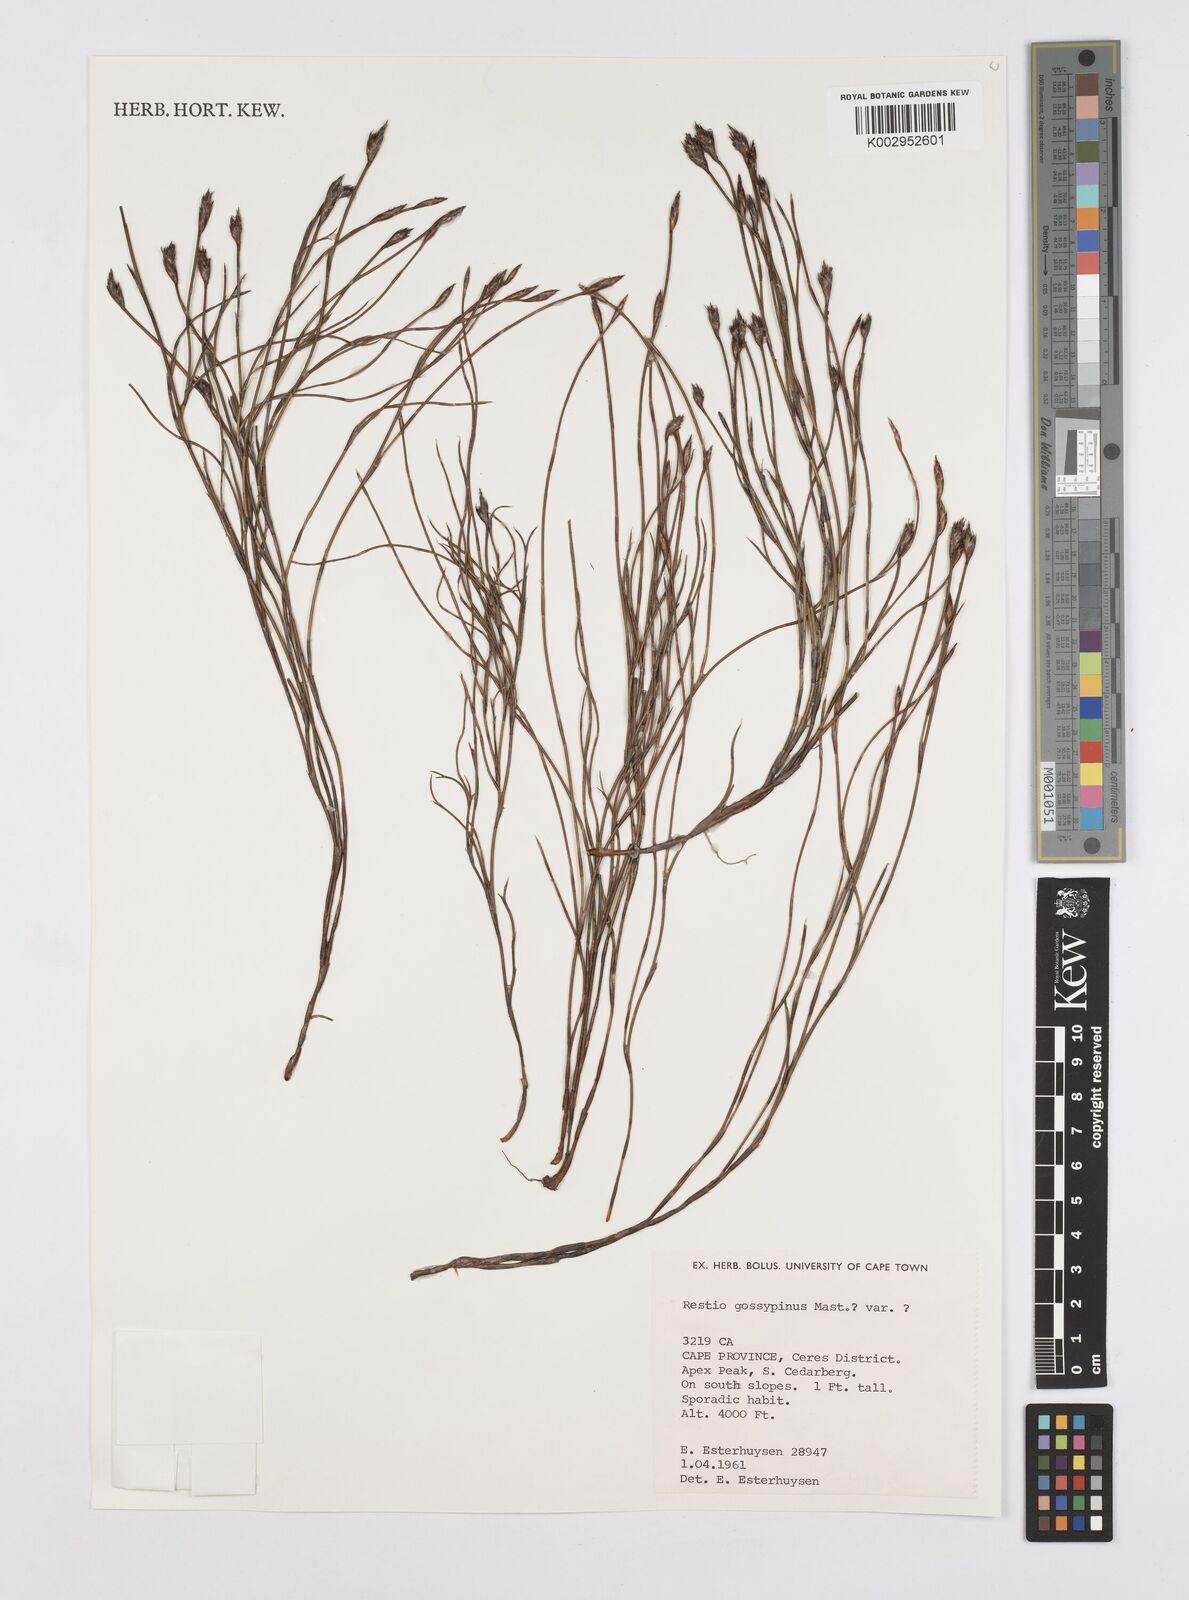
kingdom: Plantae
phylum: Tracheophyta
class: Liliopsida
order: Poales
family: Restionaceae
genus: Restio
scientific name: Restio gossypinus
